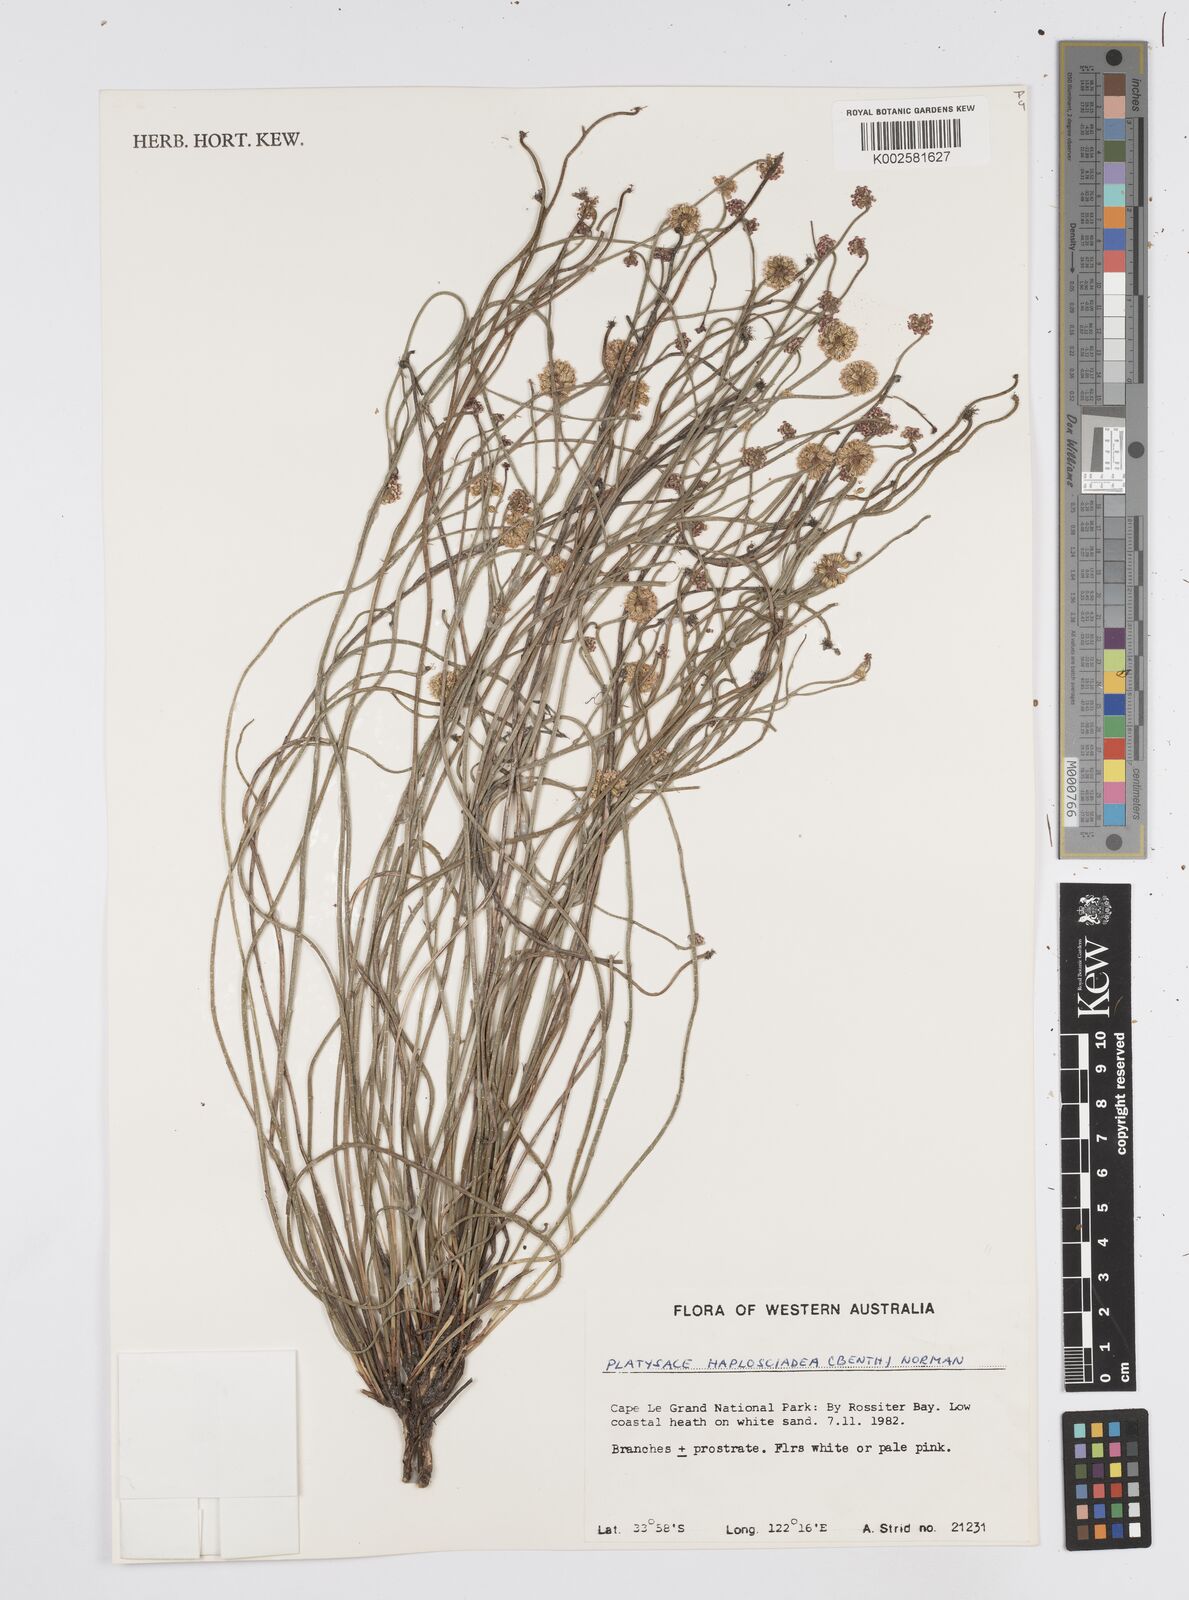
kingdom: Plantae
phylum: Tracheophyta
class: Magnoliopsida
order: Apiales
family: Apiaceae
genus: Platysace
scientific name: Platysace haplosciadia
